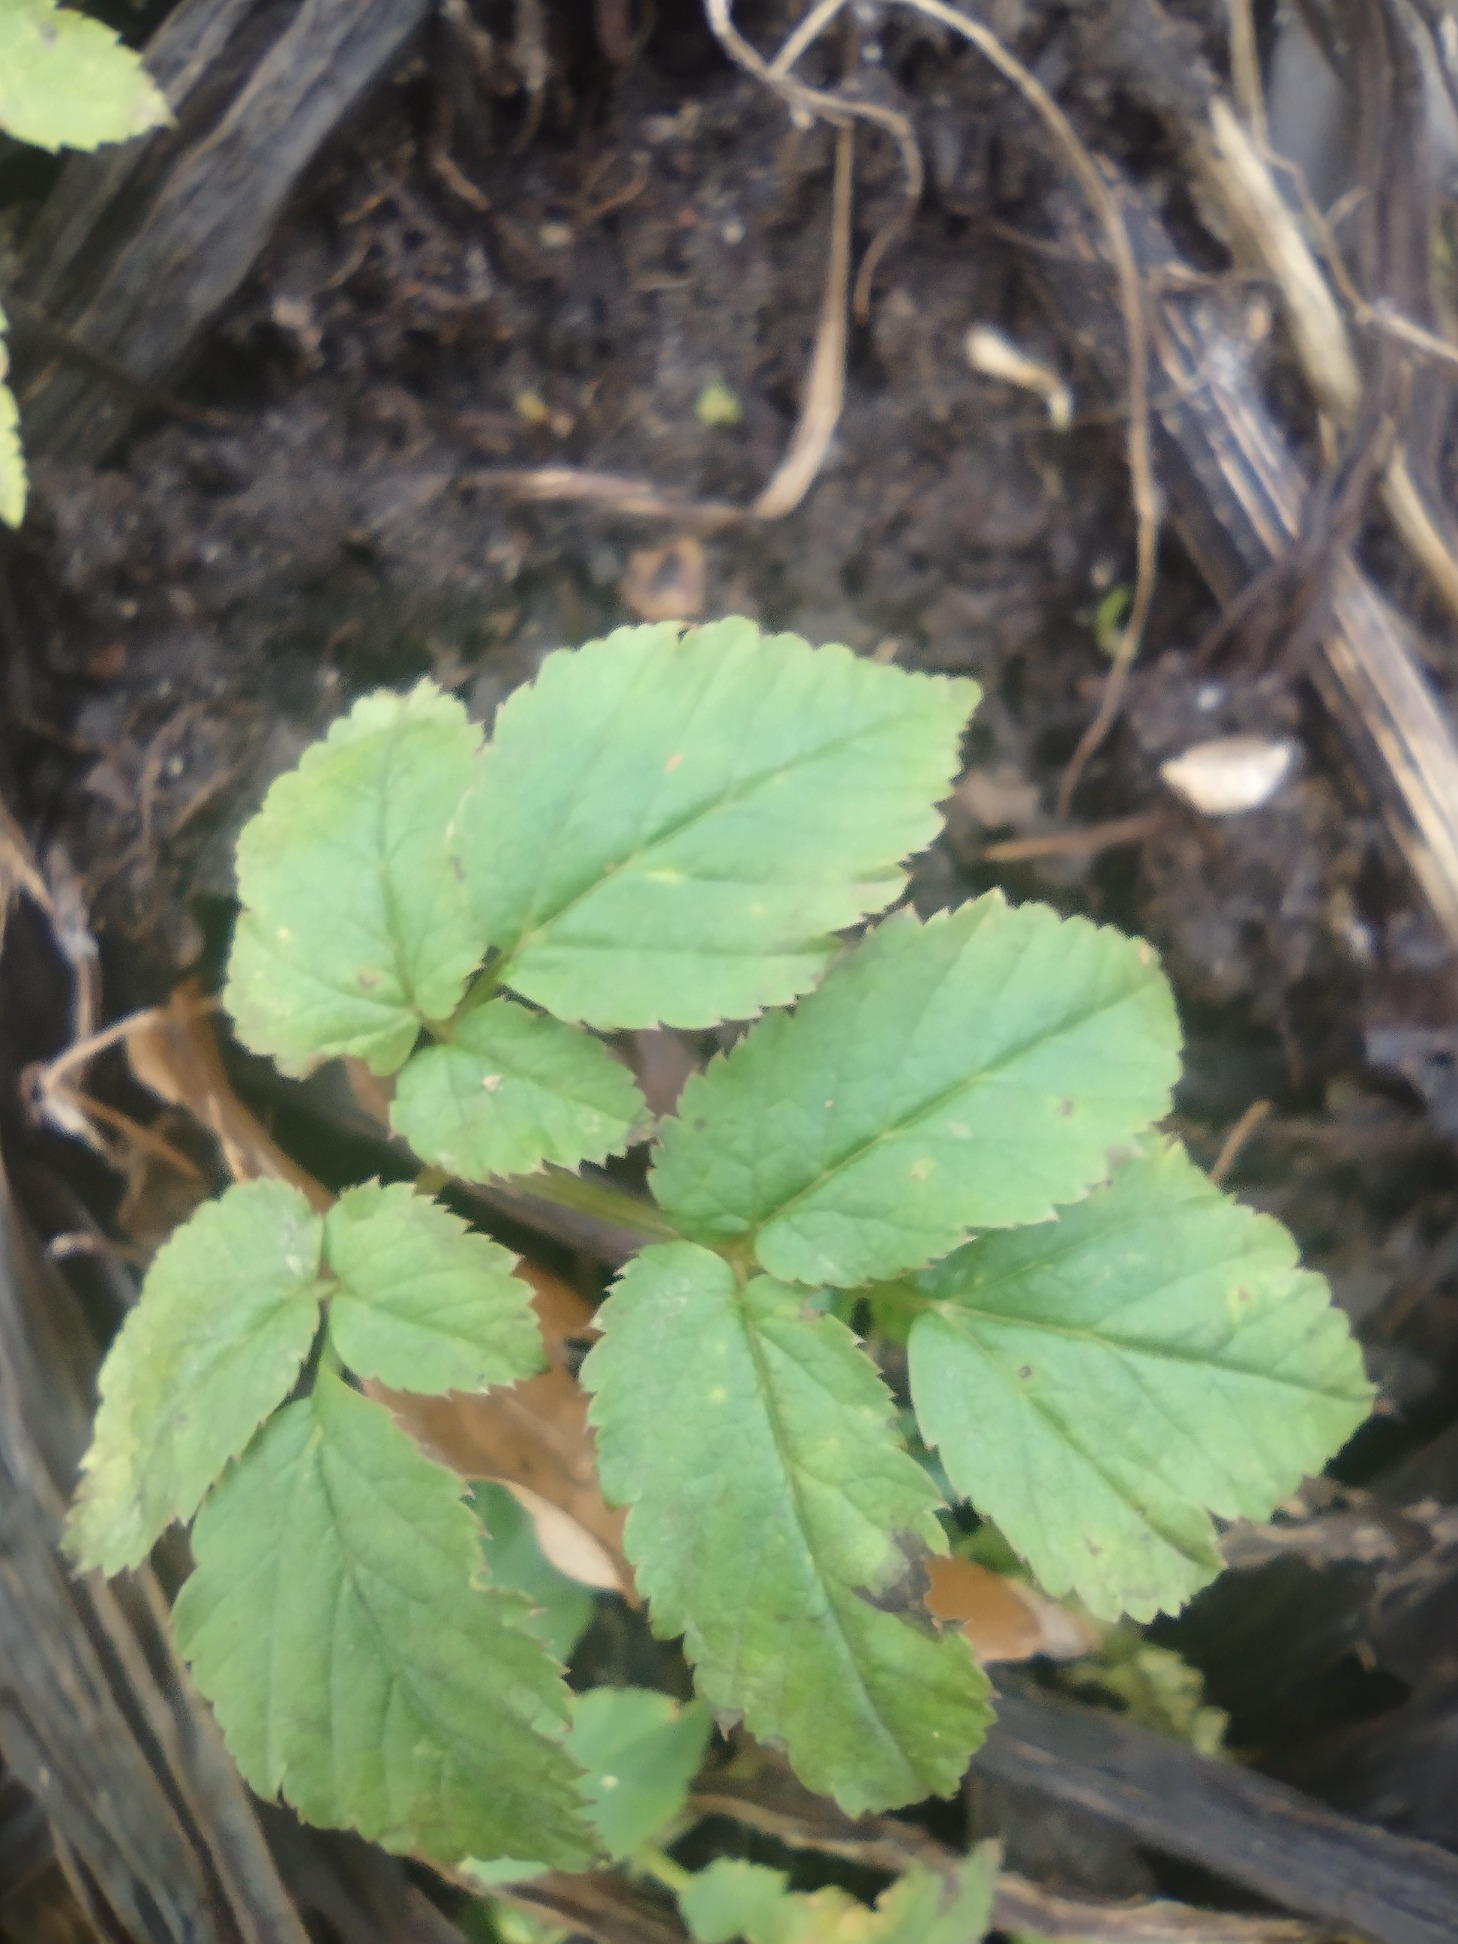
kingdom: Plantae
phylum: Tracheophyta
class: Magnoliopsida
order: Apiales
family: Apiaceae
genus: Aegopodium
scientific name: Aegopodium podagraria
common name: Skvalderkål
